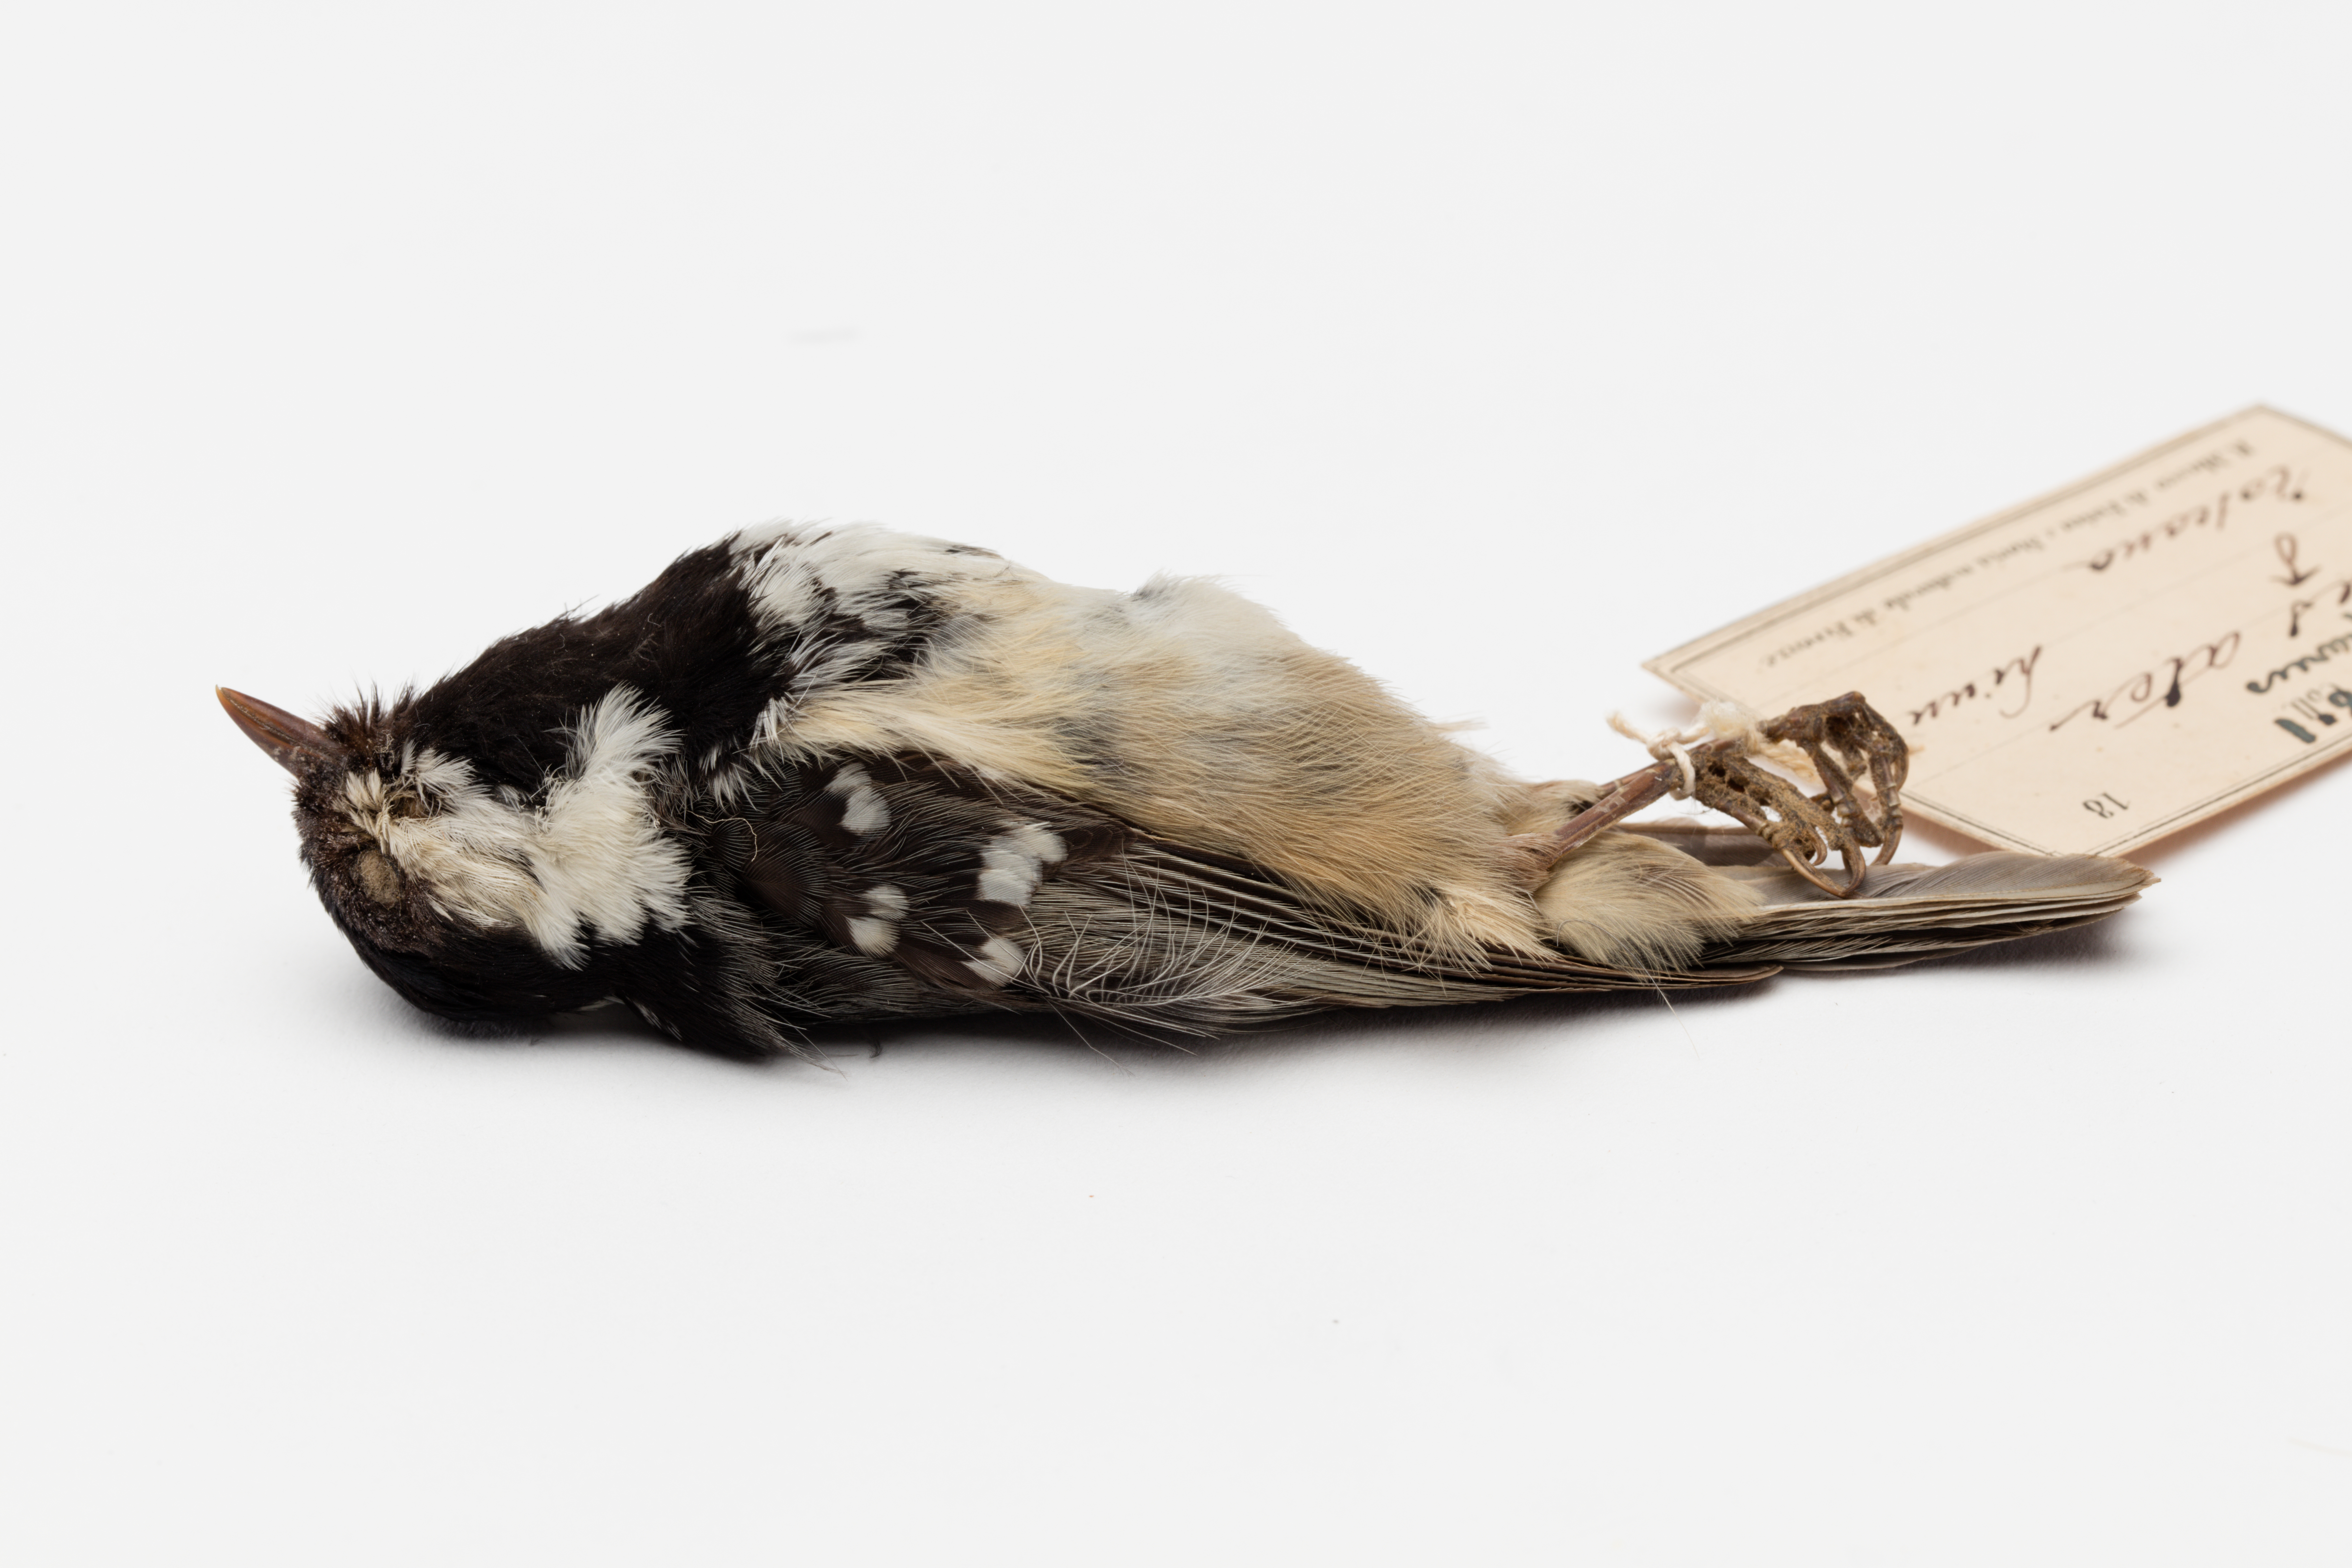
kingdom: Animalia
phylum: Chordata
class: Aves
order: Passeriformes
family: Paridae
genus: Periparus
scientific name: Periparus ater
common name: Coal tit
